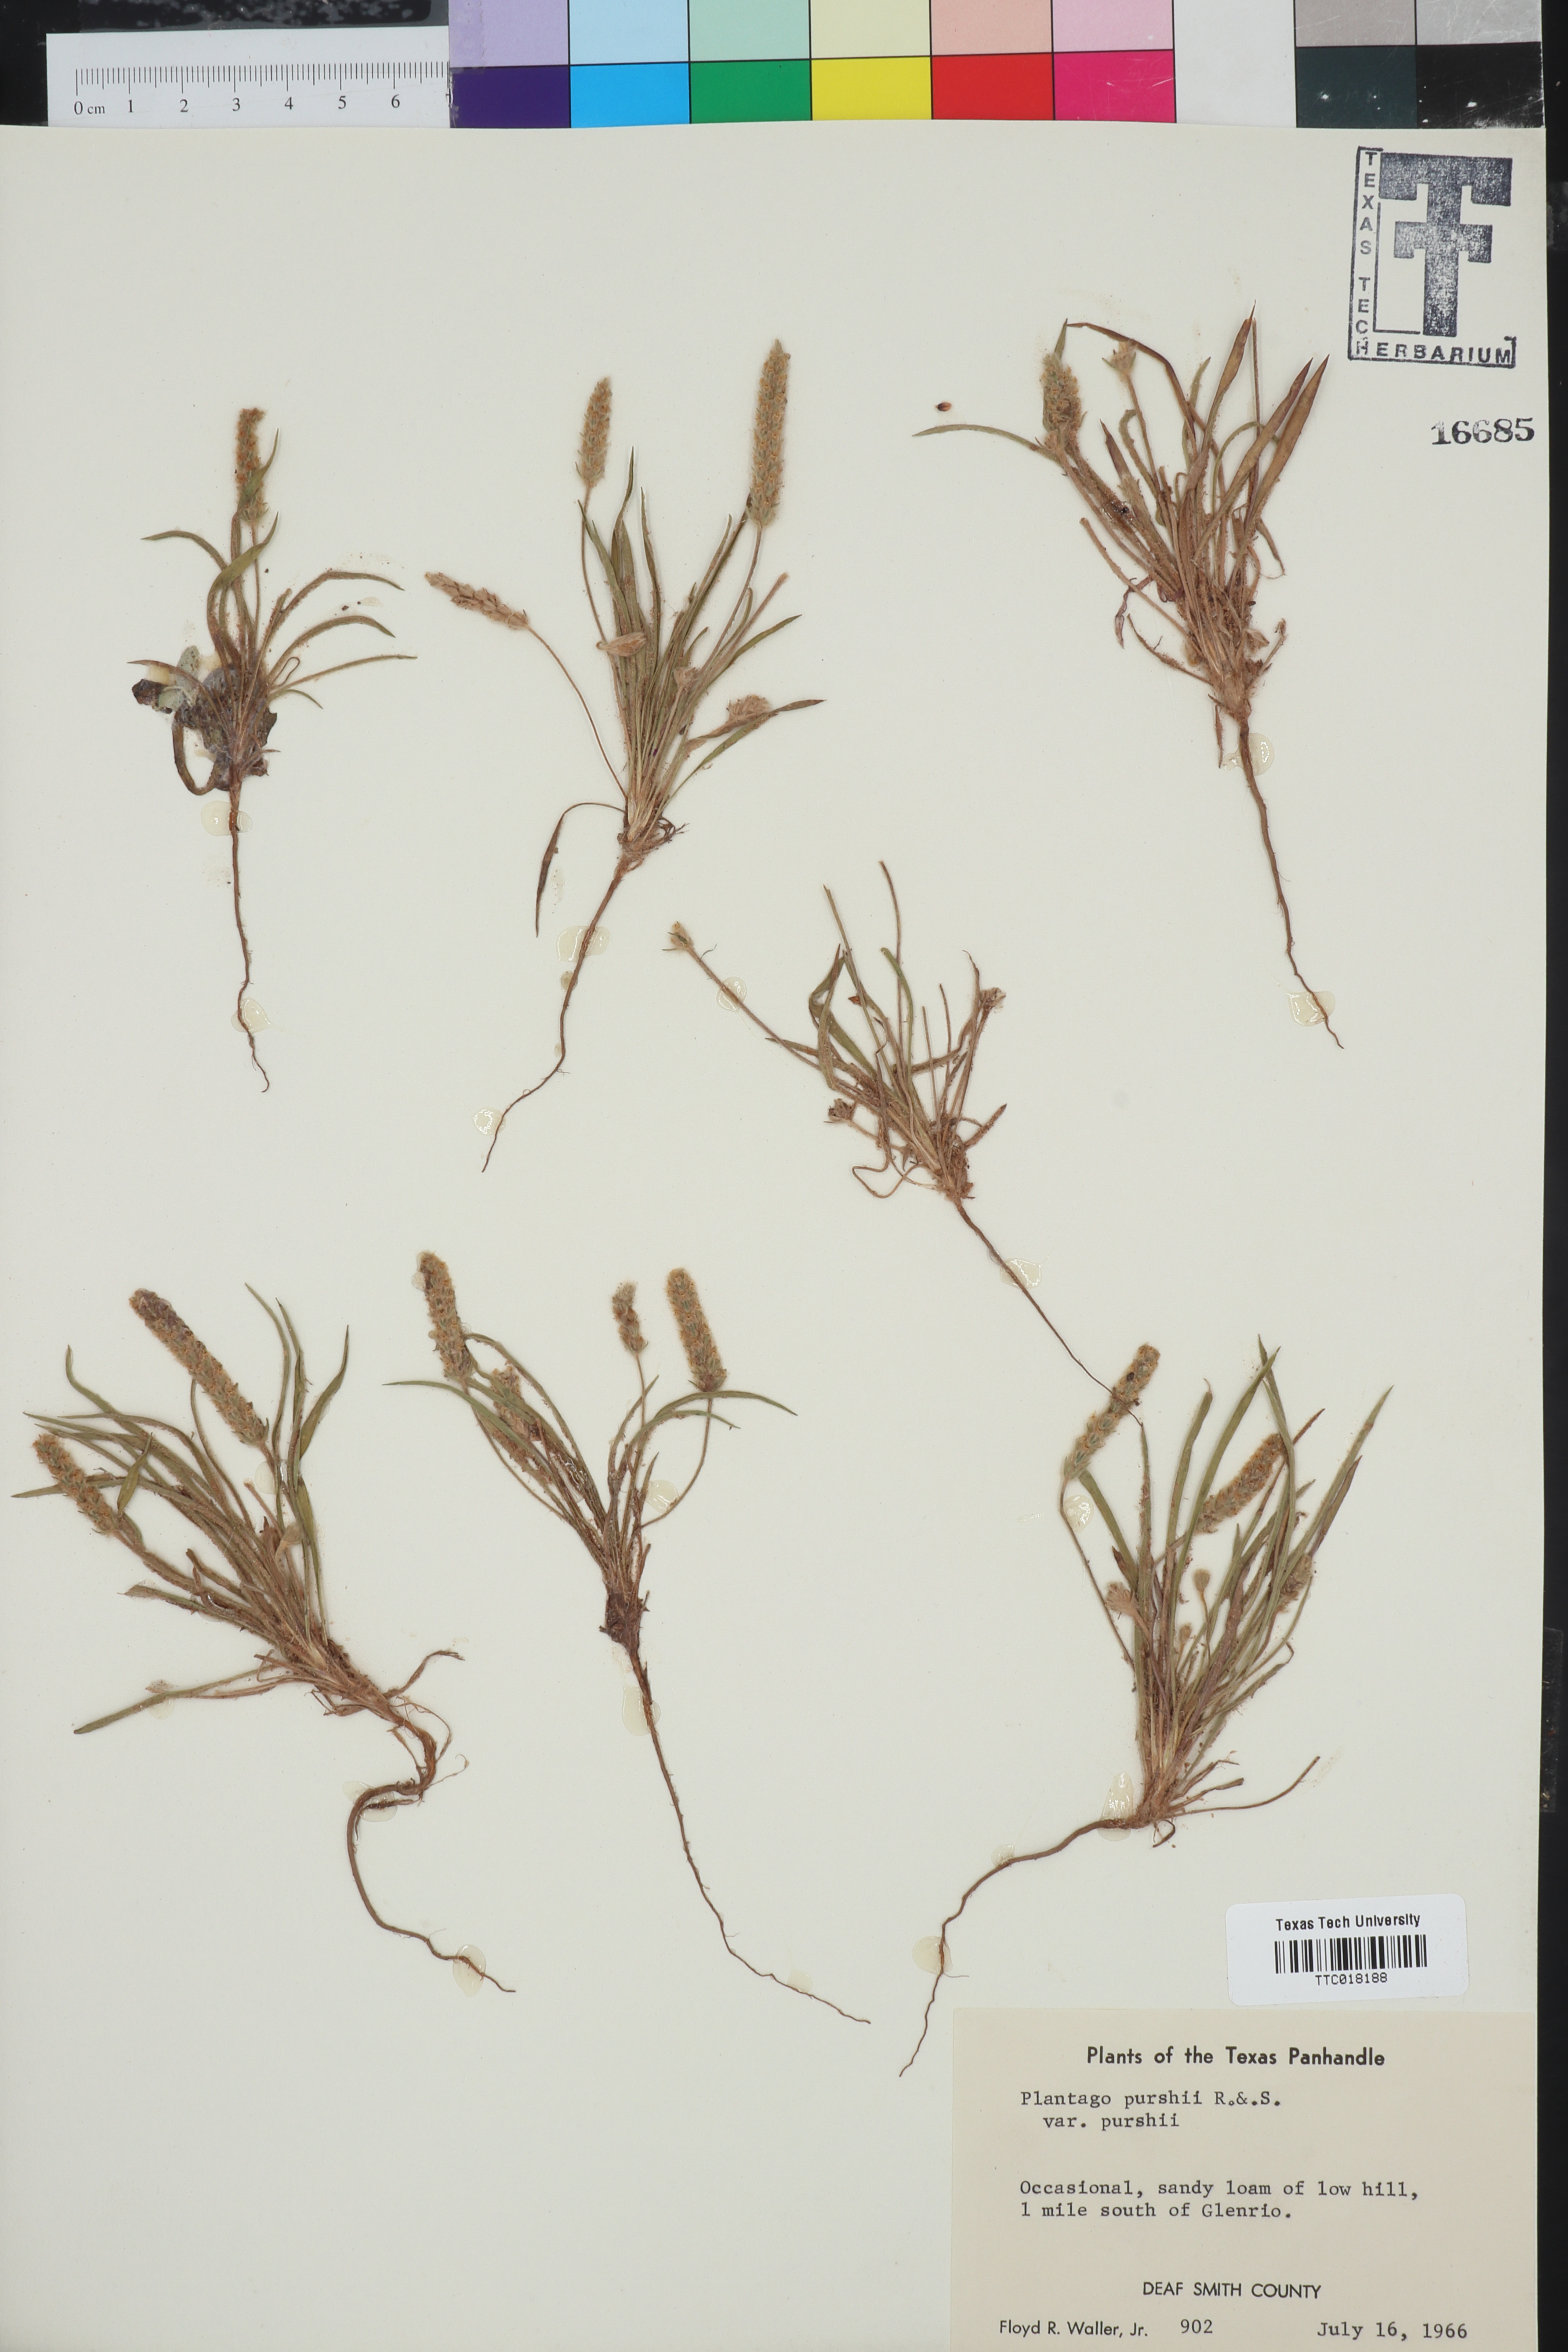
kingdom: Plantae
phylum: Tracheophyta
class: Magnoliopsida
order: Lamiales
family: Plantaginaceae
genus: Plantago
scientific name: Plantago patagonica
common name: Patagonia indian-wheat
